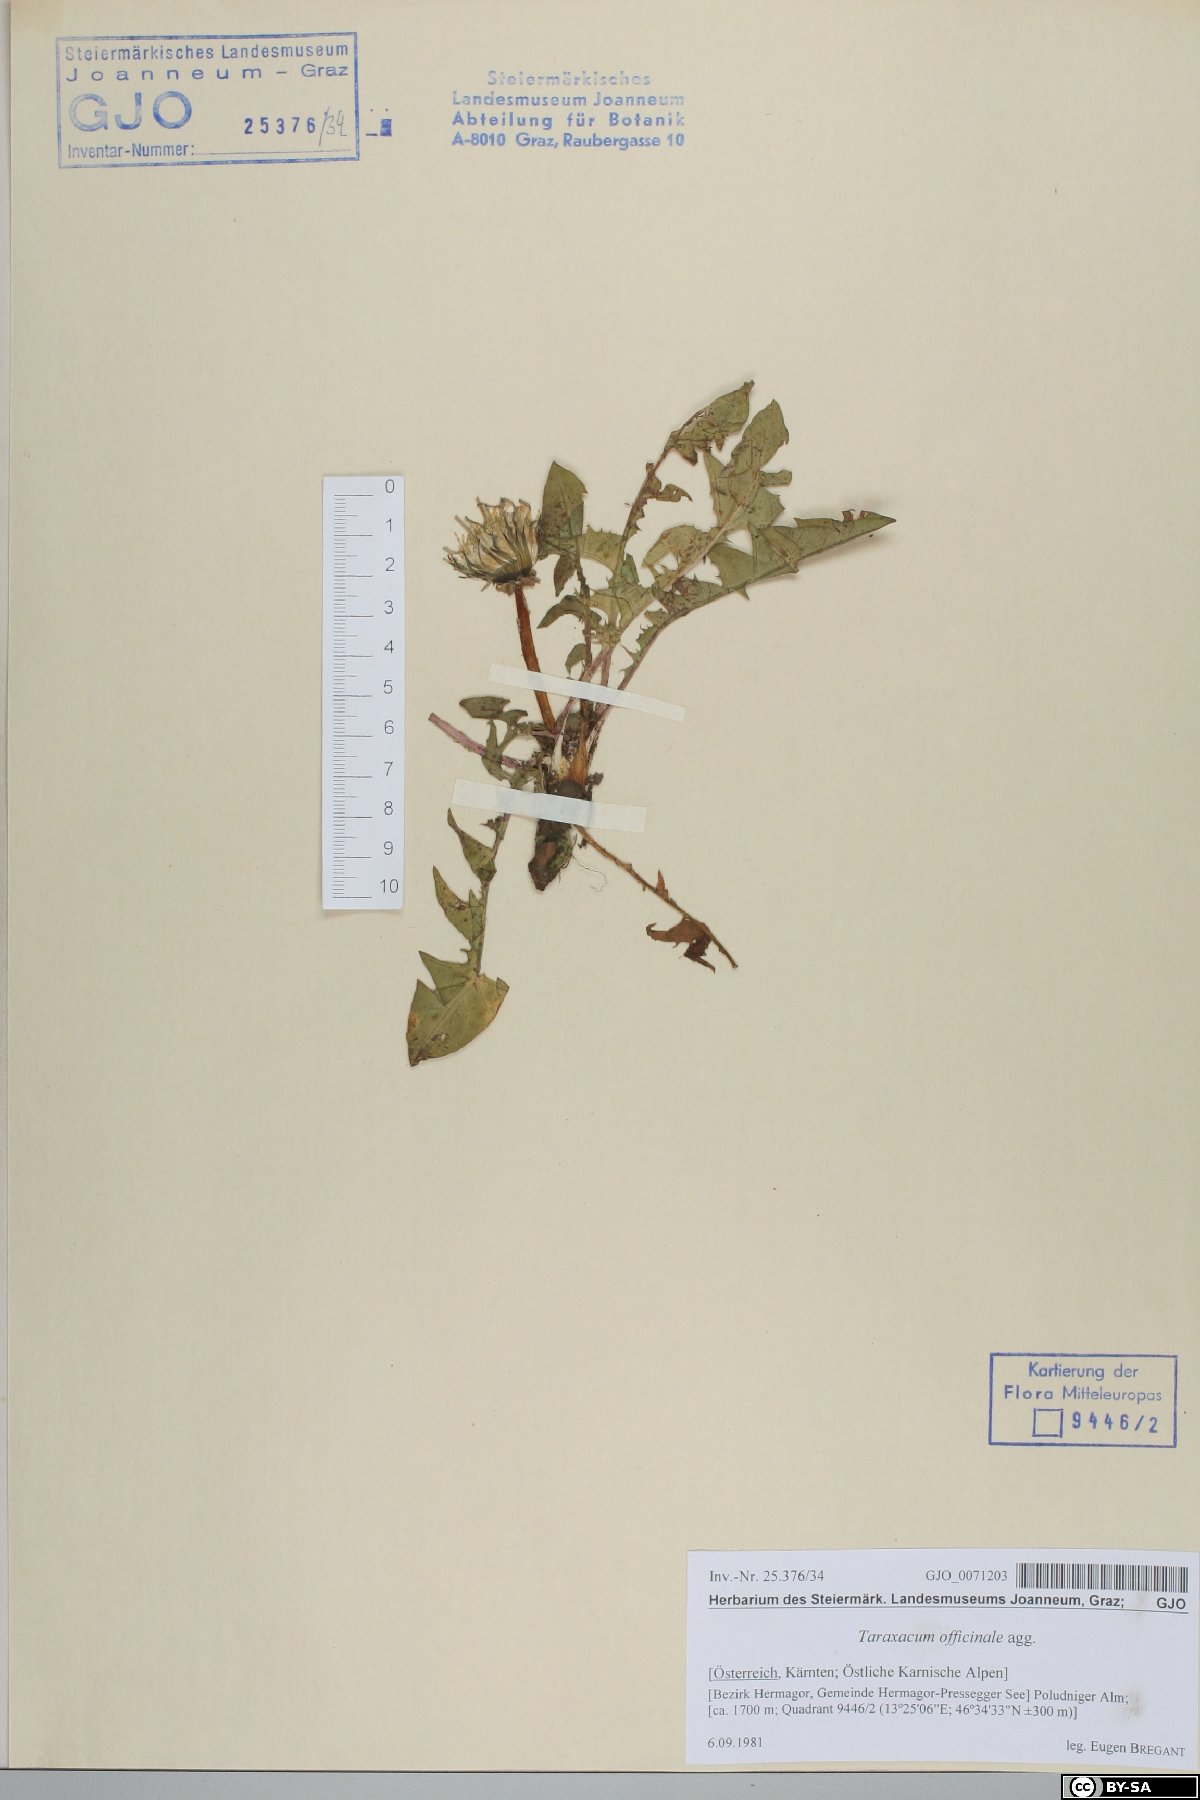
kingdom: Plantae
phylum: Tracheophyta
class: Magnoliopsida
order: Asterales
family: Asteraceae
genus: Taraxacum
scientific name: Taraxacum officinale
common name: Common dandelion
